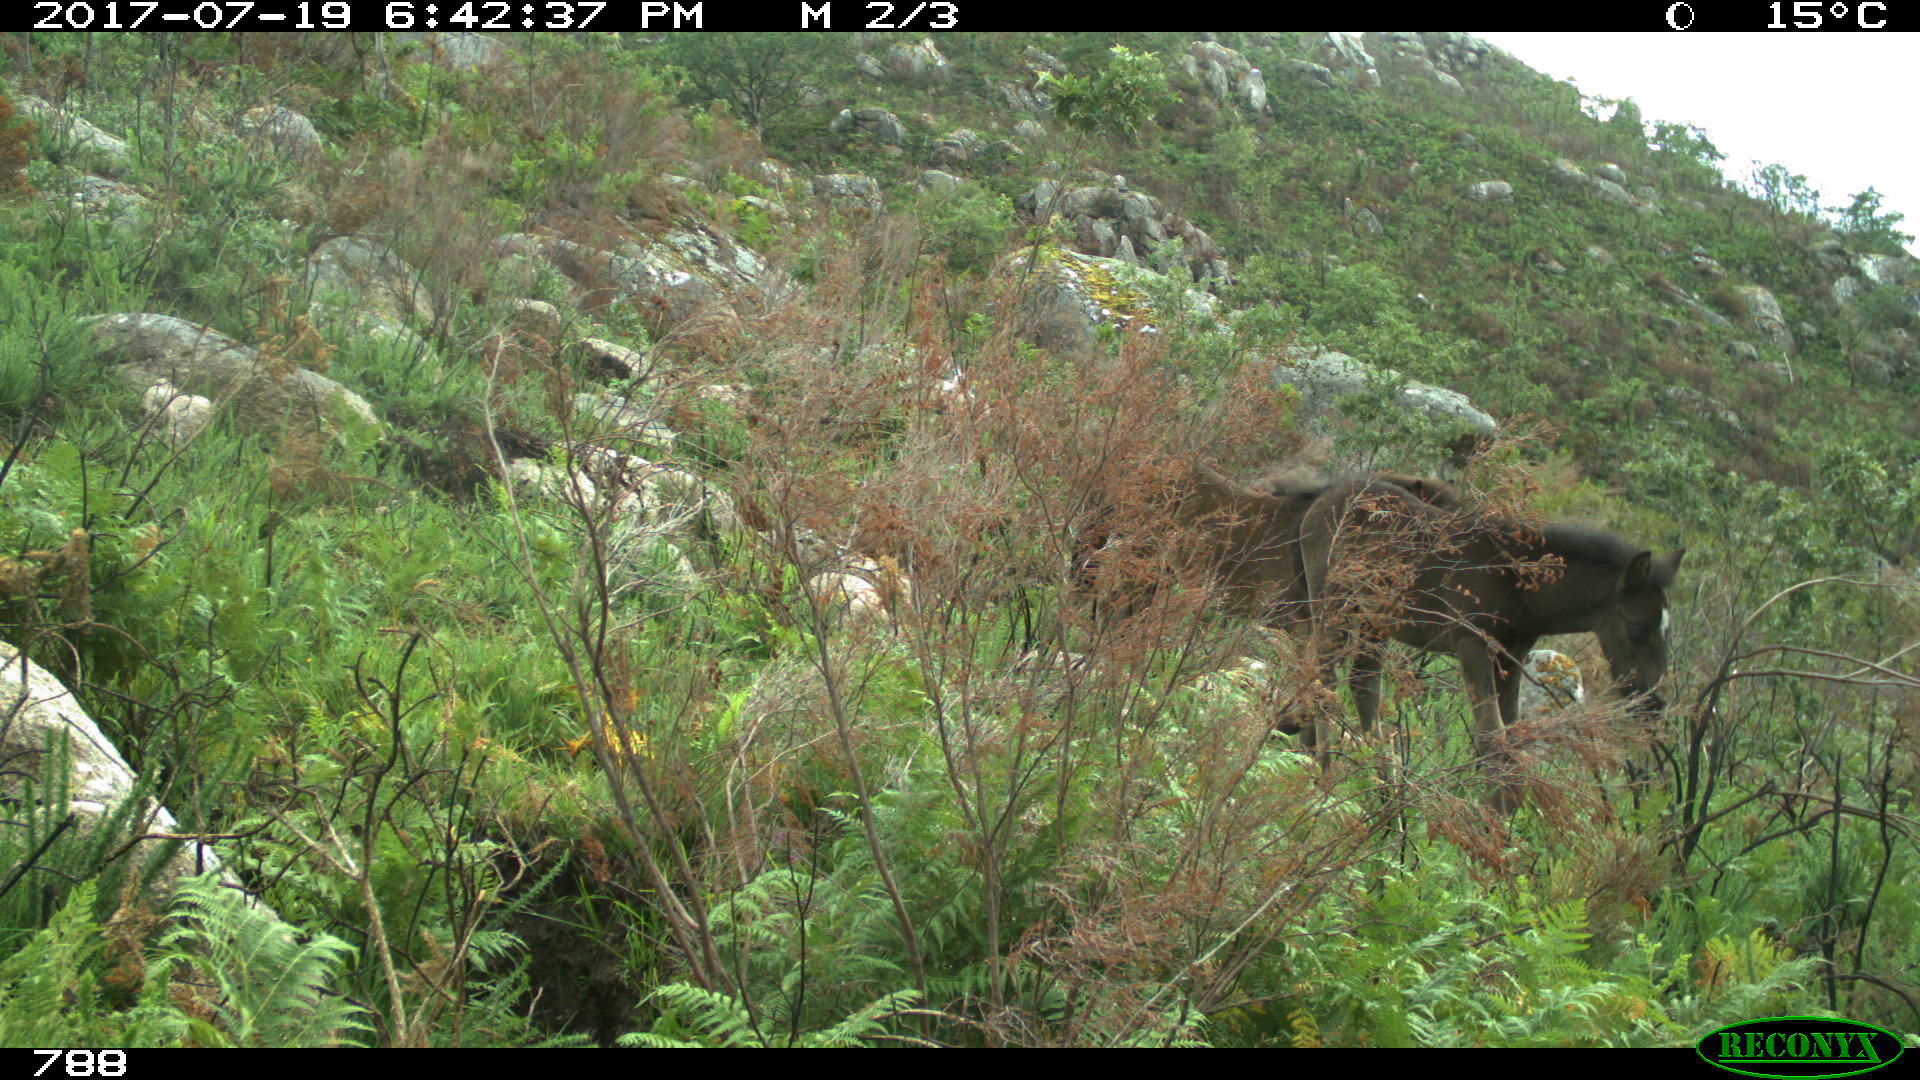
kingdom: Animalia
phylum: Chordata
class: Mammalia
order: Perissodactyla
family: Equidae
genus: Equus
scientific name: Equus caballus
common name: Horse
